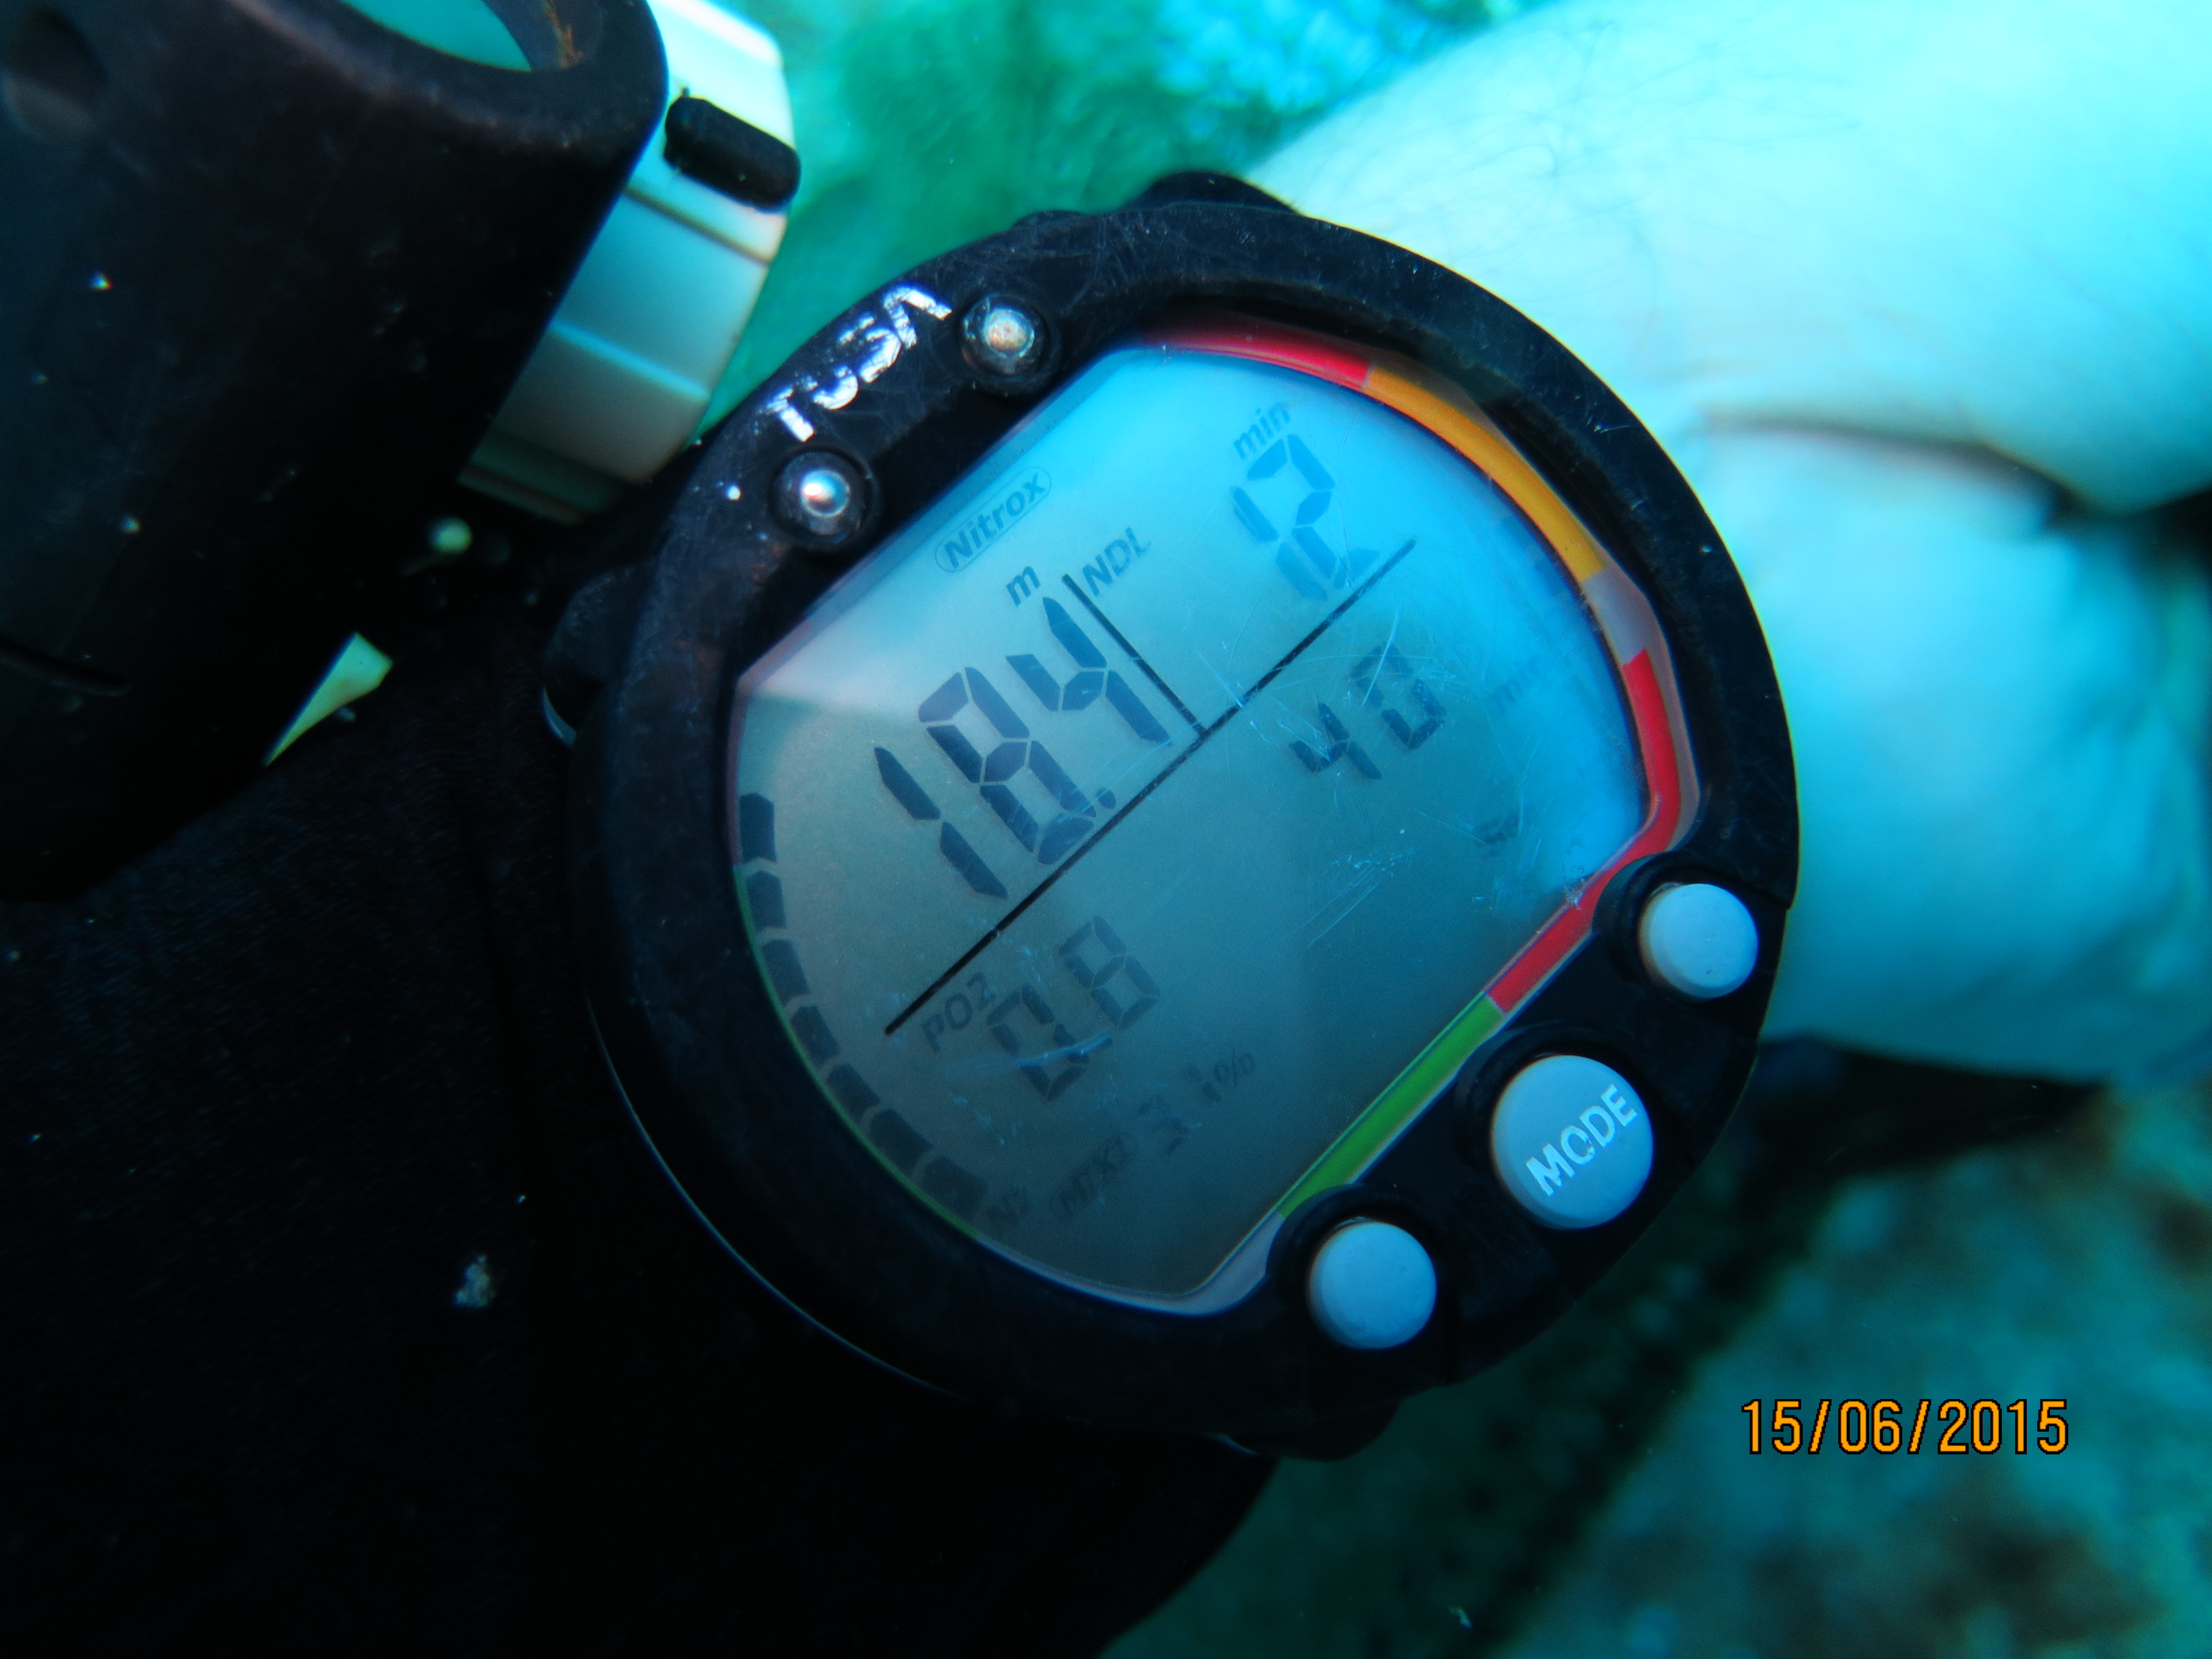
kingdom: Animalia
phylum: Porifera
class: Demospongiae
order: Haplosclerida
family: Petrosiidae
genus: Xestospongia
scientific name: Xestospongia muta
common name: Giant barrel sponge
